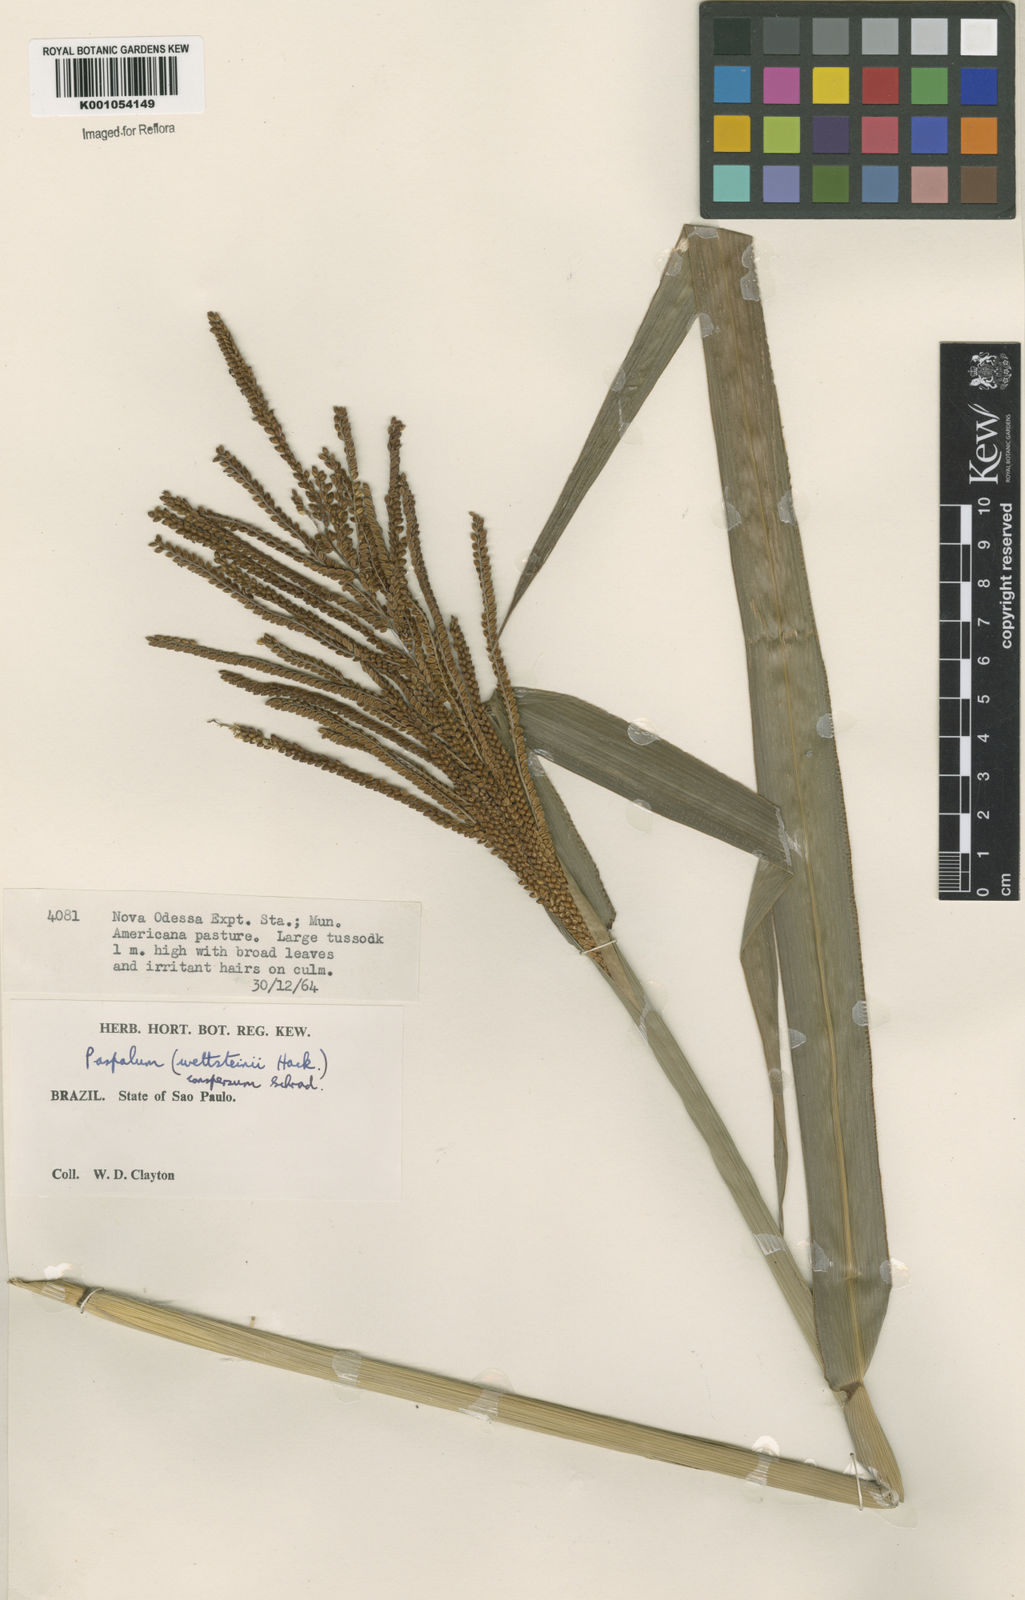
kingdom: Plantae
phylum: Tracheophyta
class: Liliopsida
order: Poales
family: Poaceae
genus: Paspalum
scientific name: Paspalum conspersum
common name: Scattered paspalum
